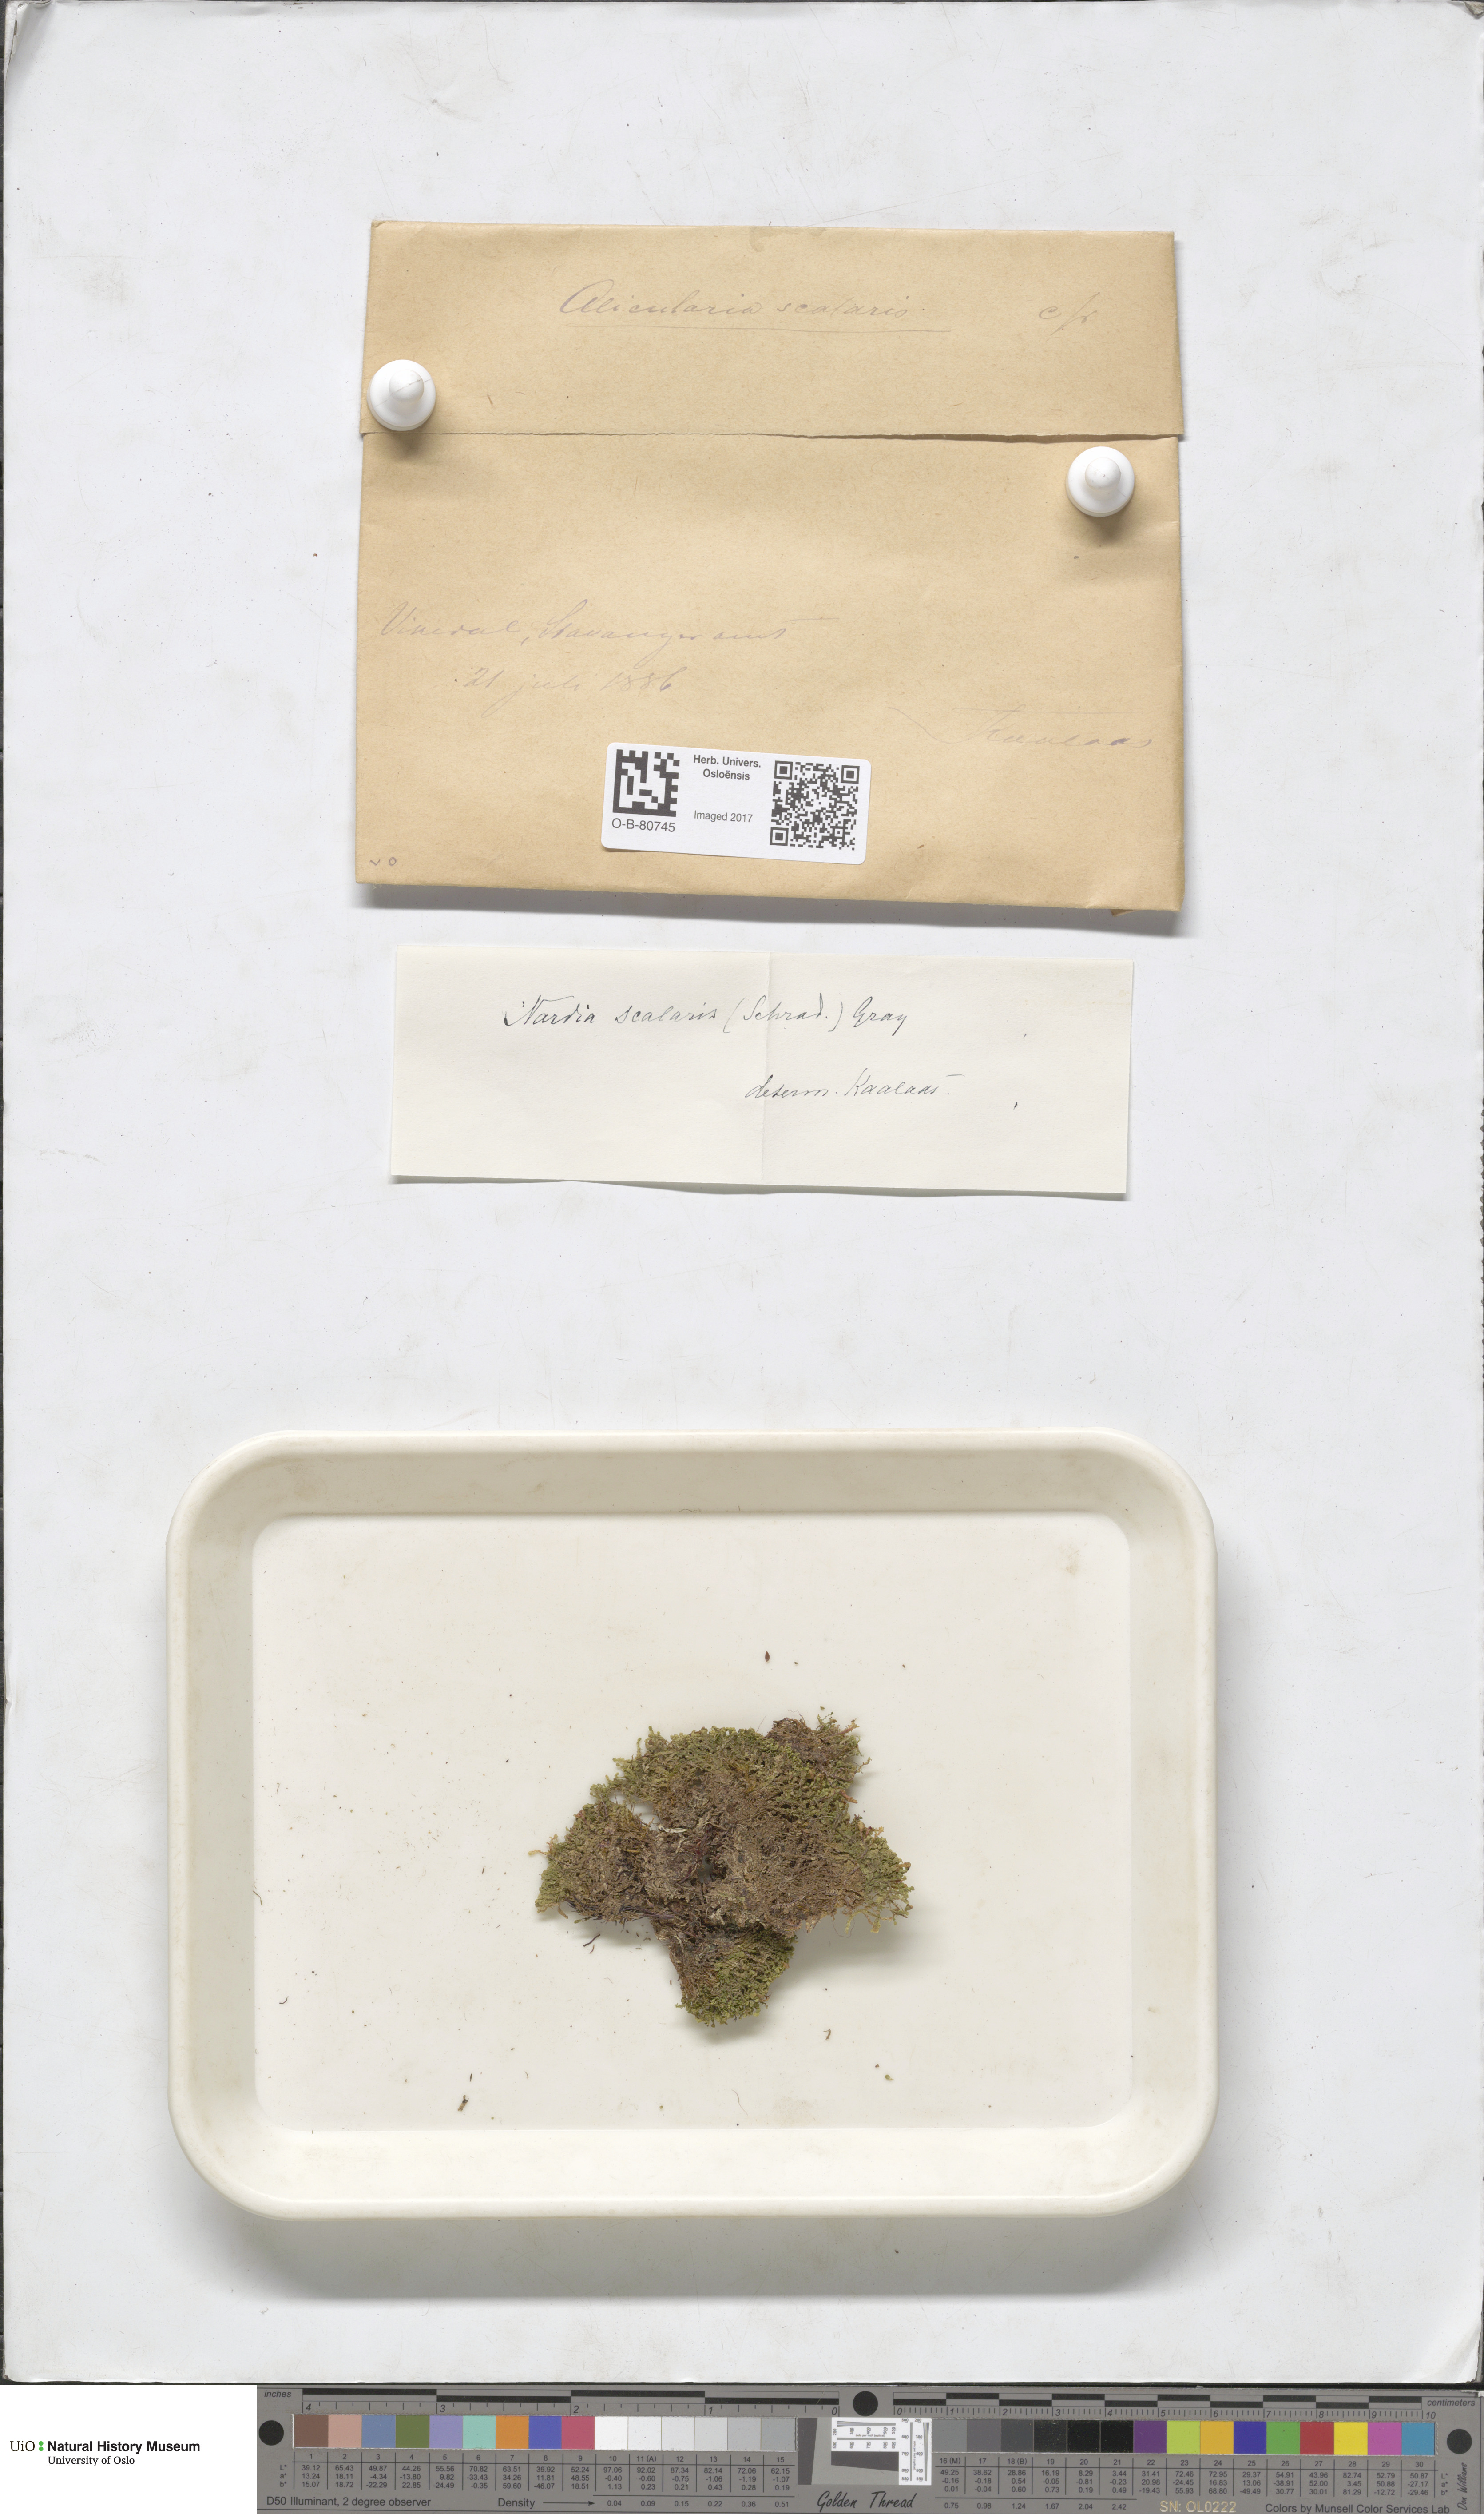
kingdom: Plantae
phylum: Marchantiophyta
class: Jungermanniopsida
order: Jungermanniales
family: Gymnomitriaceae
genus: Nardia
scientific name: Nardia scalaris
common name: Ladder flapwort
